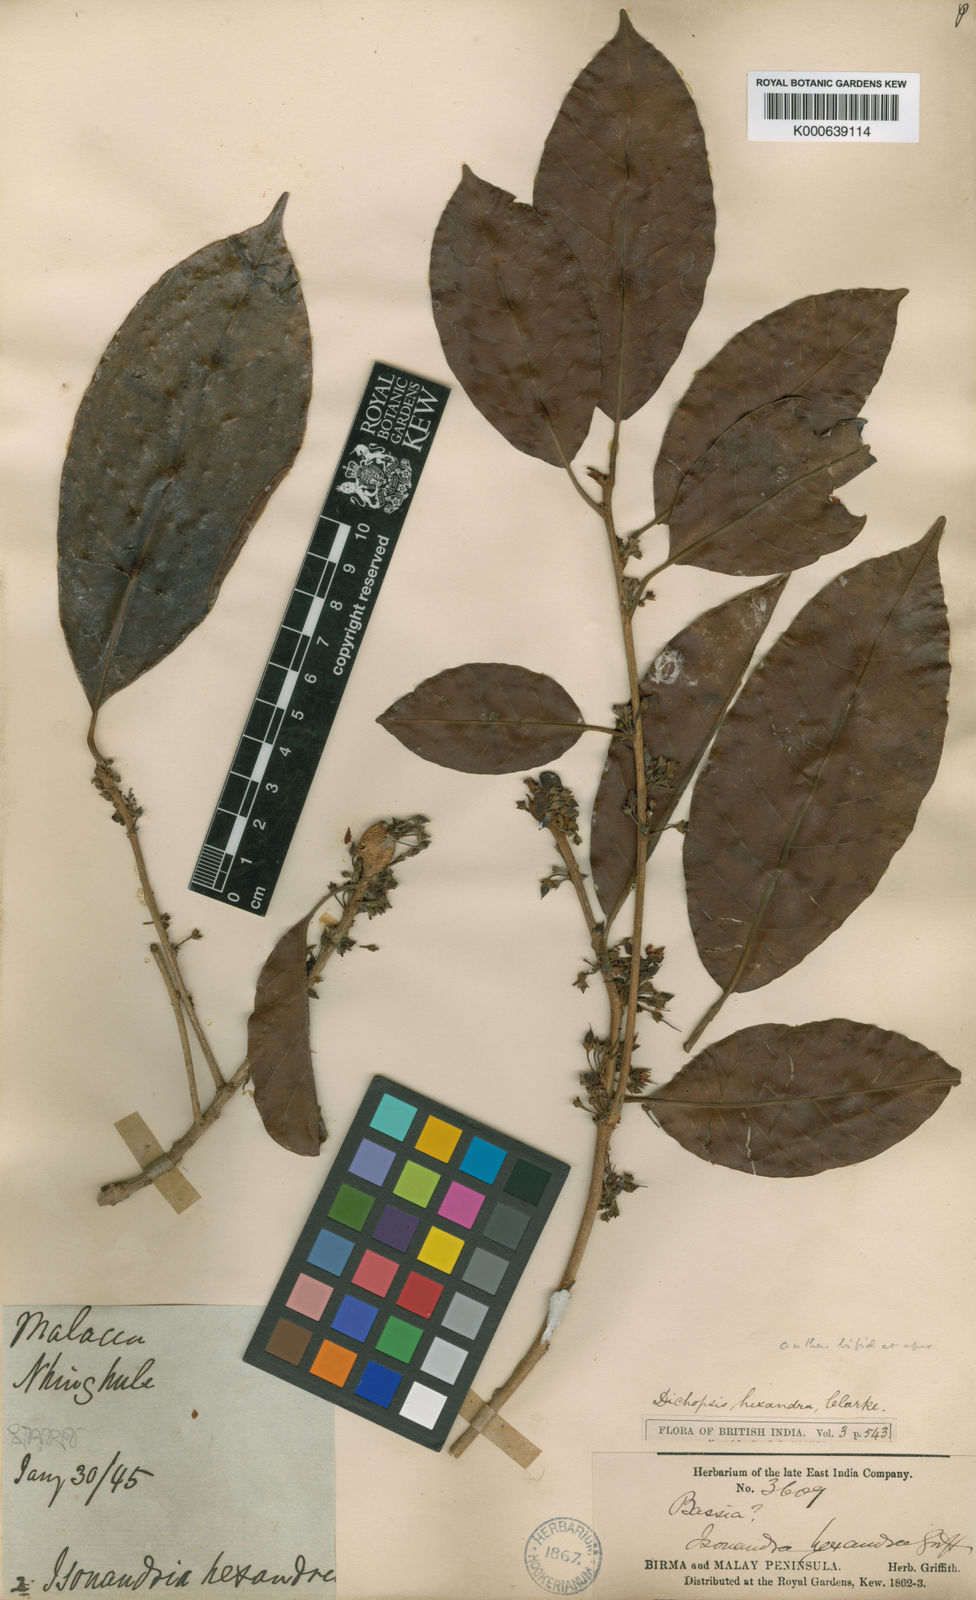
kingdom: Plantae
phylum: Tracheophyta
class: Magnoliopsida
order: Ericales
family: Sapotaceae
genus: Palaquium
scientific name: Palaquium hexandrum
